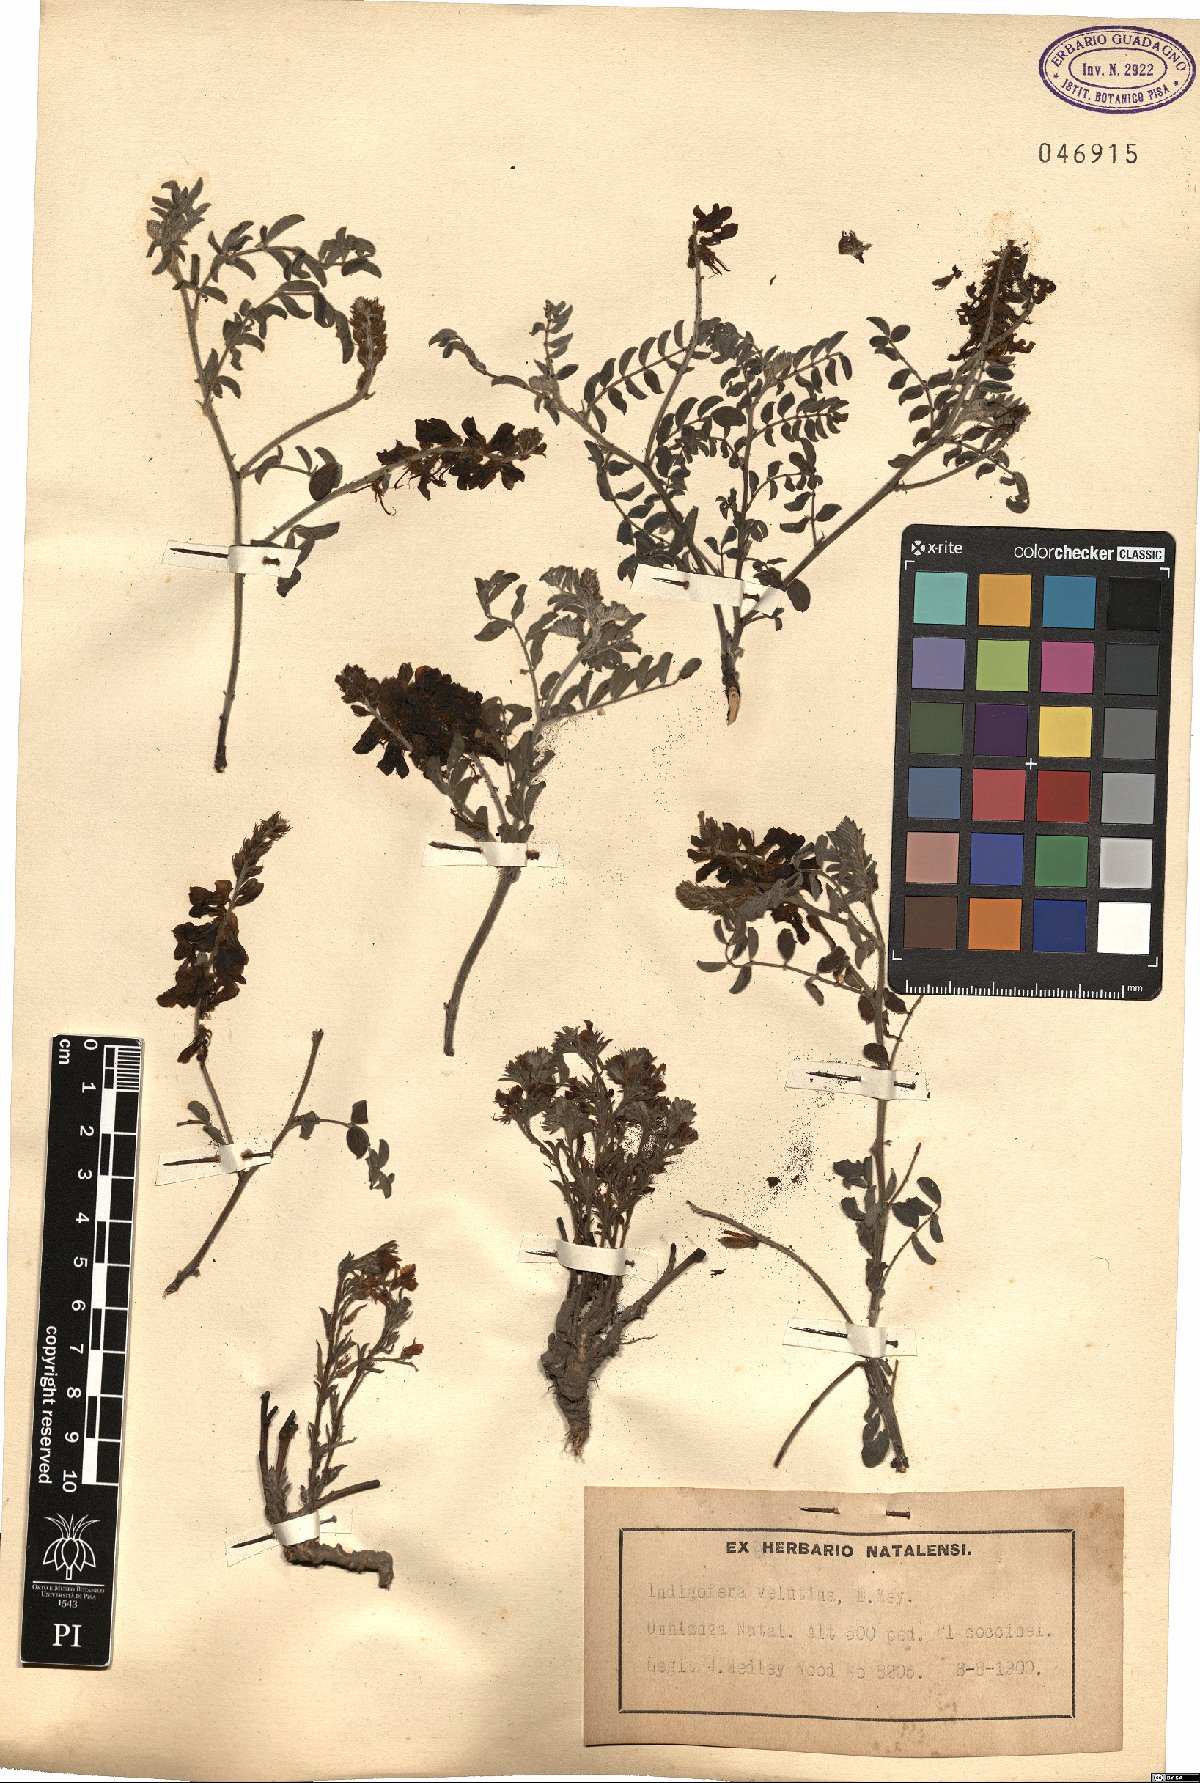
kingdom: Plantae
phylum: Tracheophyta
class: Magnoliopsida
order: Fabales
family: Fabaceae
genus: Indigofera
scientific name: Indigofera velutina
